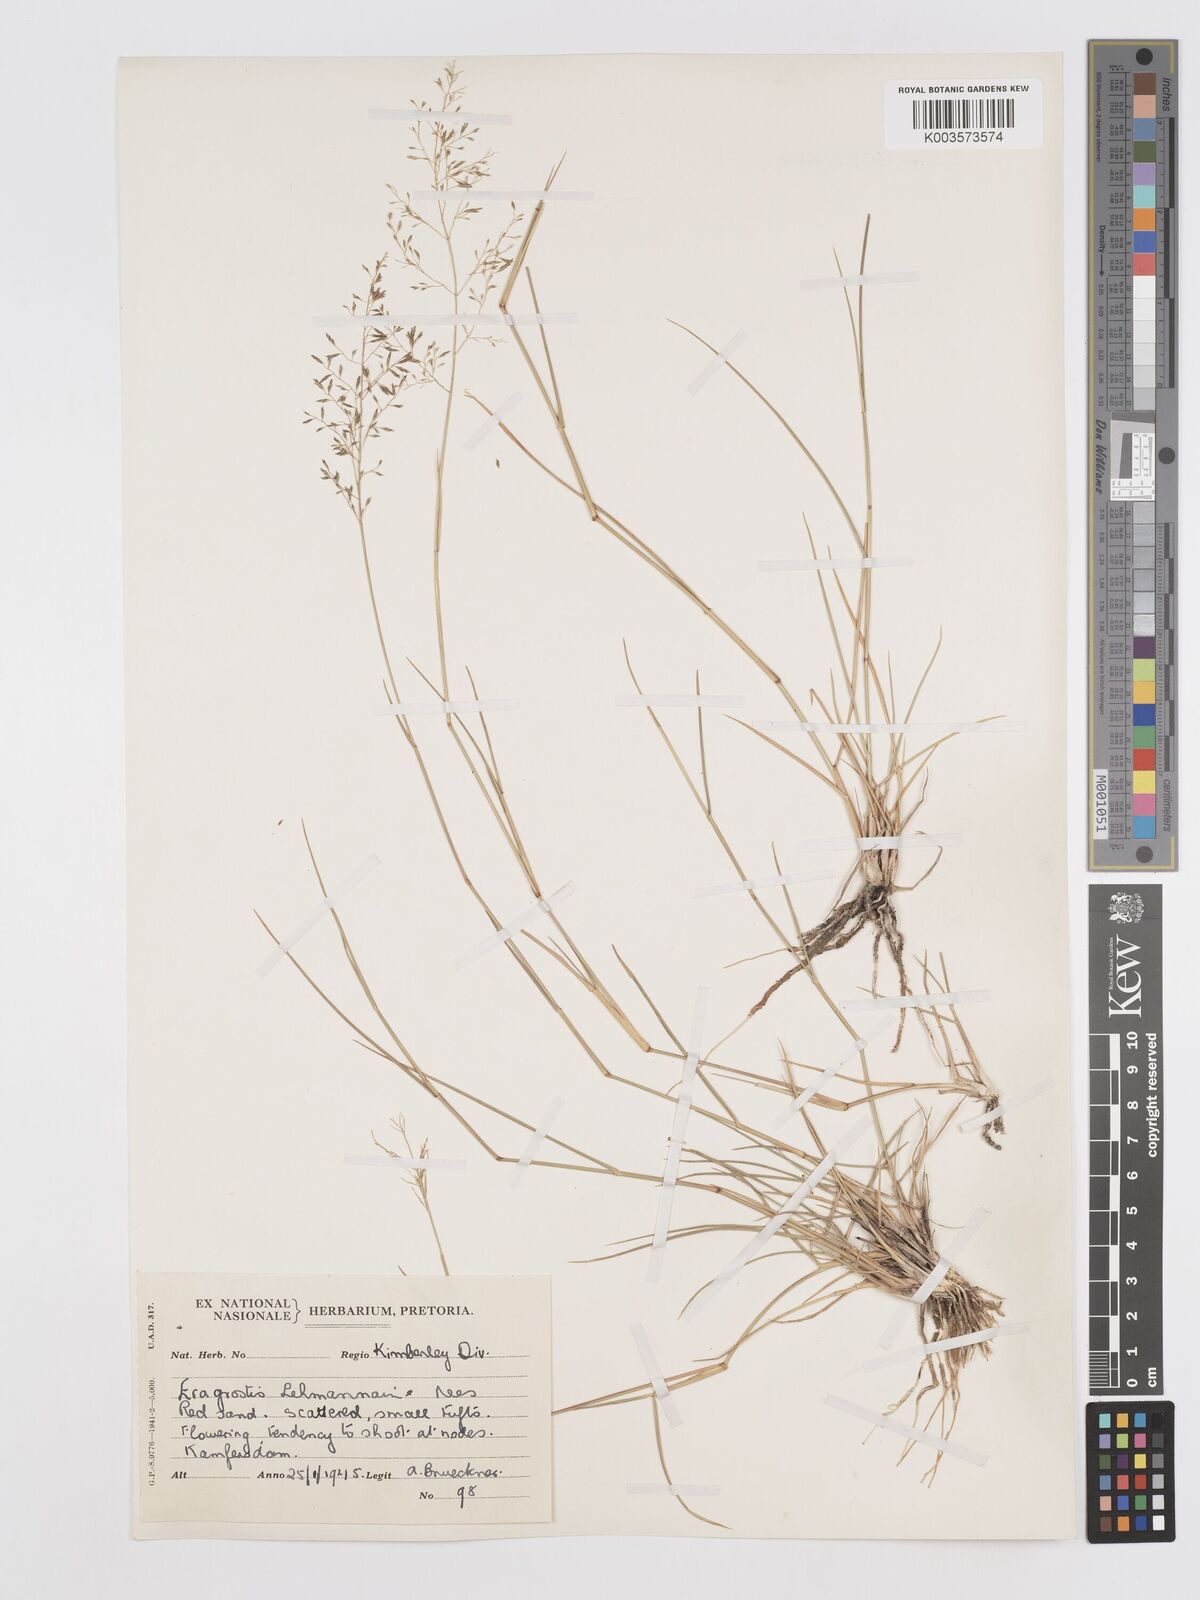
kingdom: Plantae
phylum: Tracheophyta
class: Liliopsida
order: Poales
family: Poaceae
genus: Eragrostis
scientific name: Eragrostis lehmanniana
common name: Lehmann lovegrass
